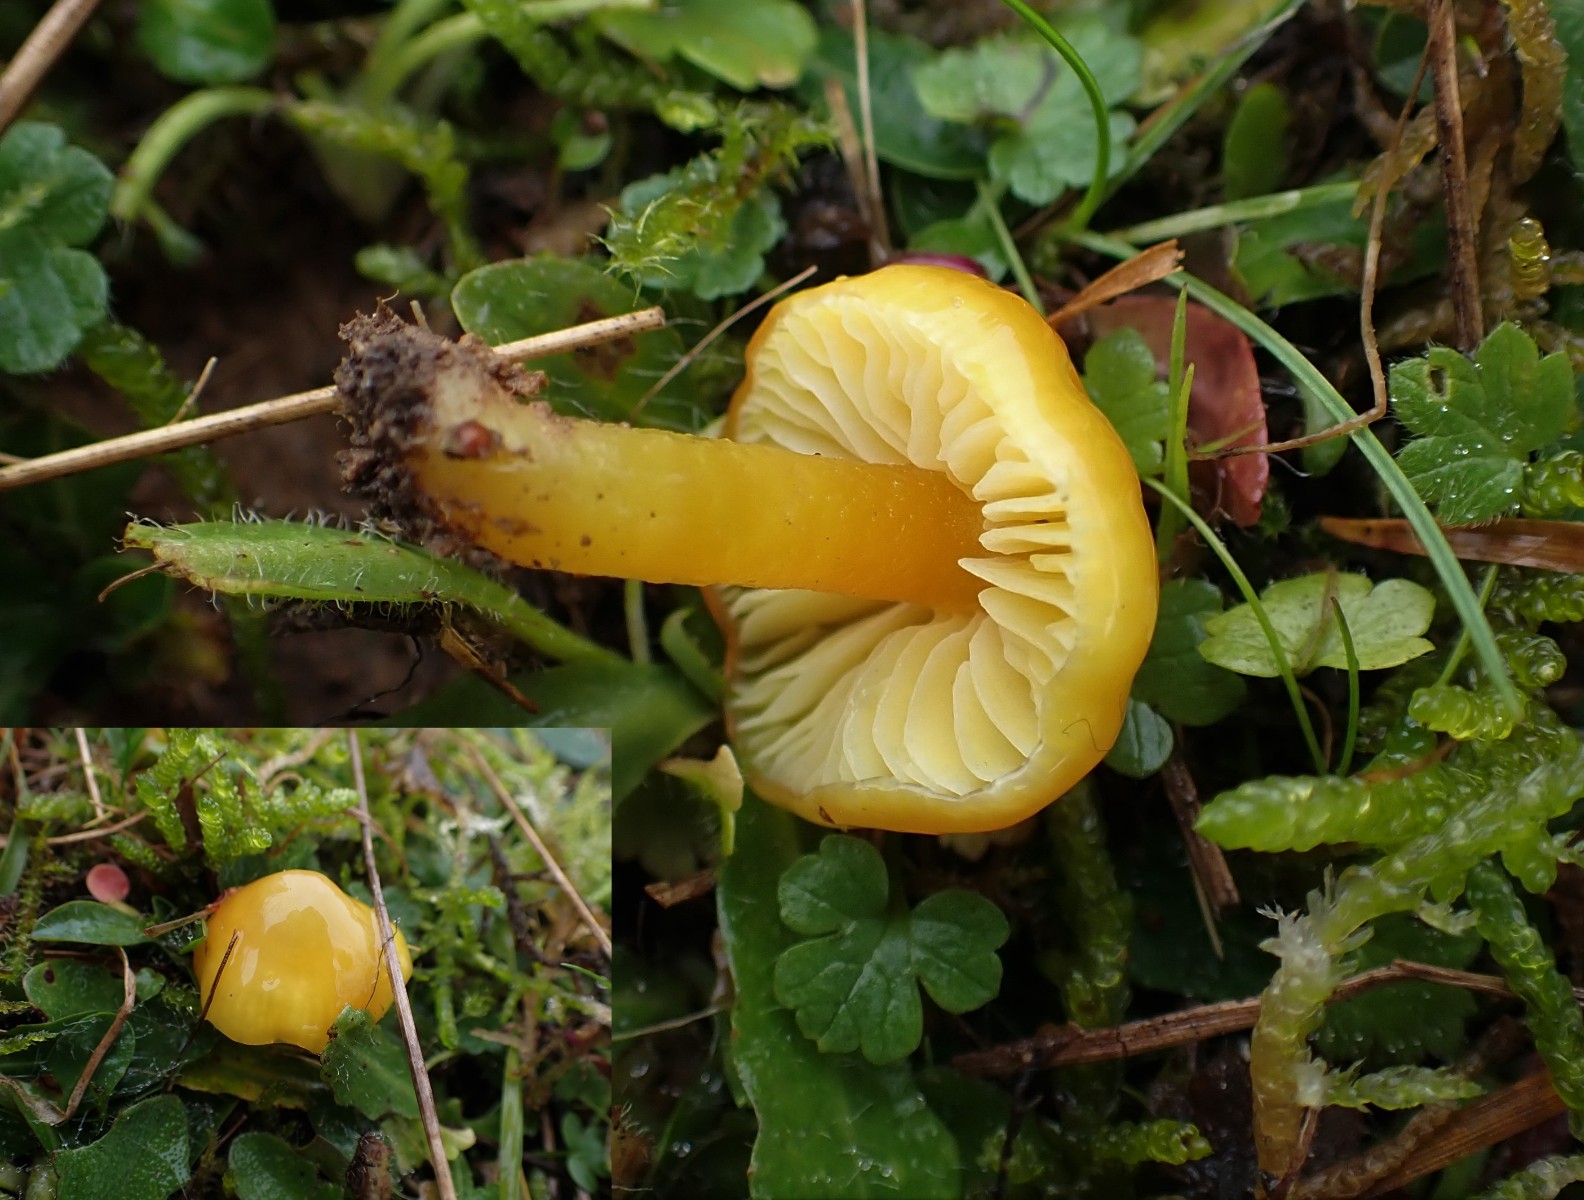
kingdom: Fungi
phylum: Basidiomycota
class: Agaricomycetes
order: Agaricales
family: Hygrophoraceae
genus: Hygrocybe
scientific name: Hygrocybe chlorophana
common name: gul vokshat
